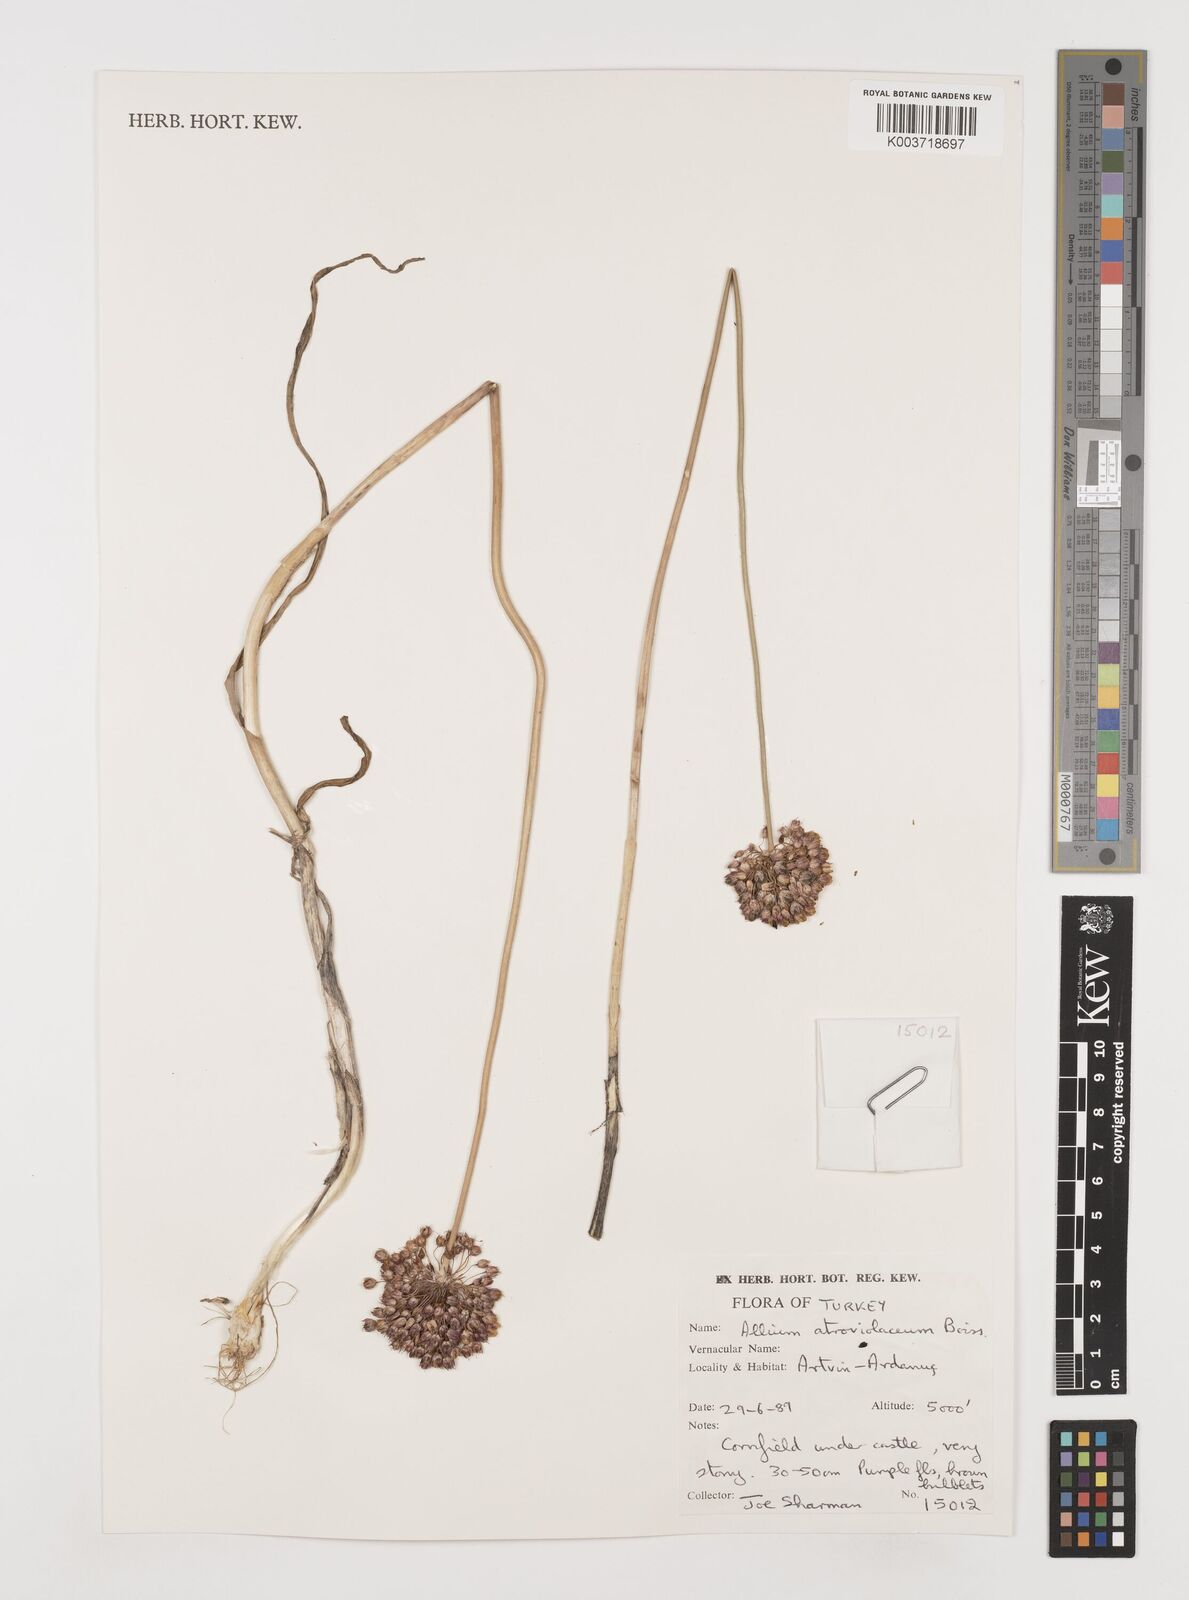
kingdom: Plantae
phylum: Tracheophyta
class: Liliopsida
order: Asparagales
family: Amaryllidaceae
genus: Allium
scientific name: Allium atroviolaceum
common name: Broadleaf wild leek
